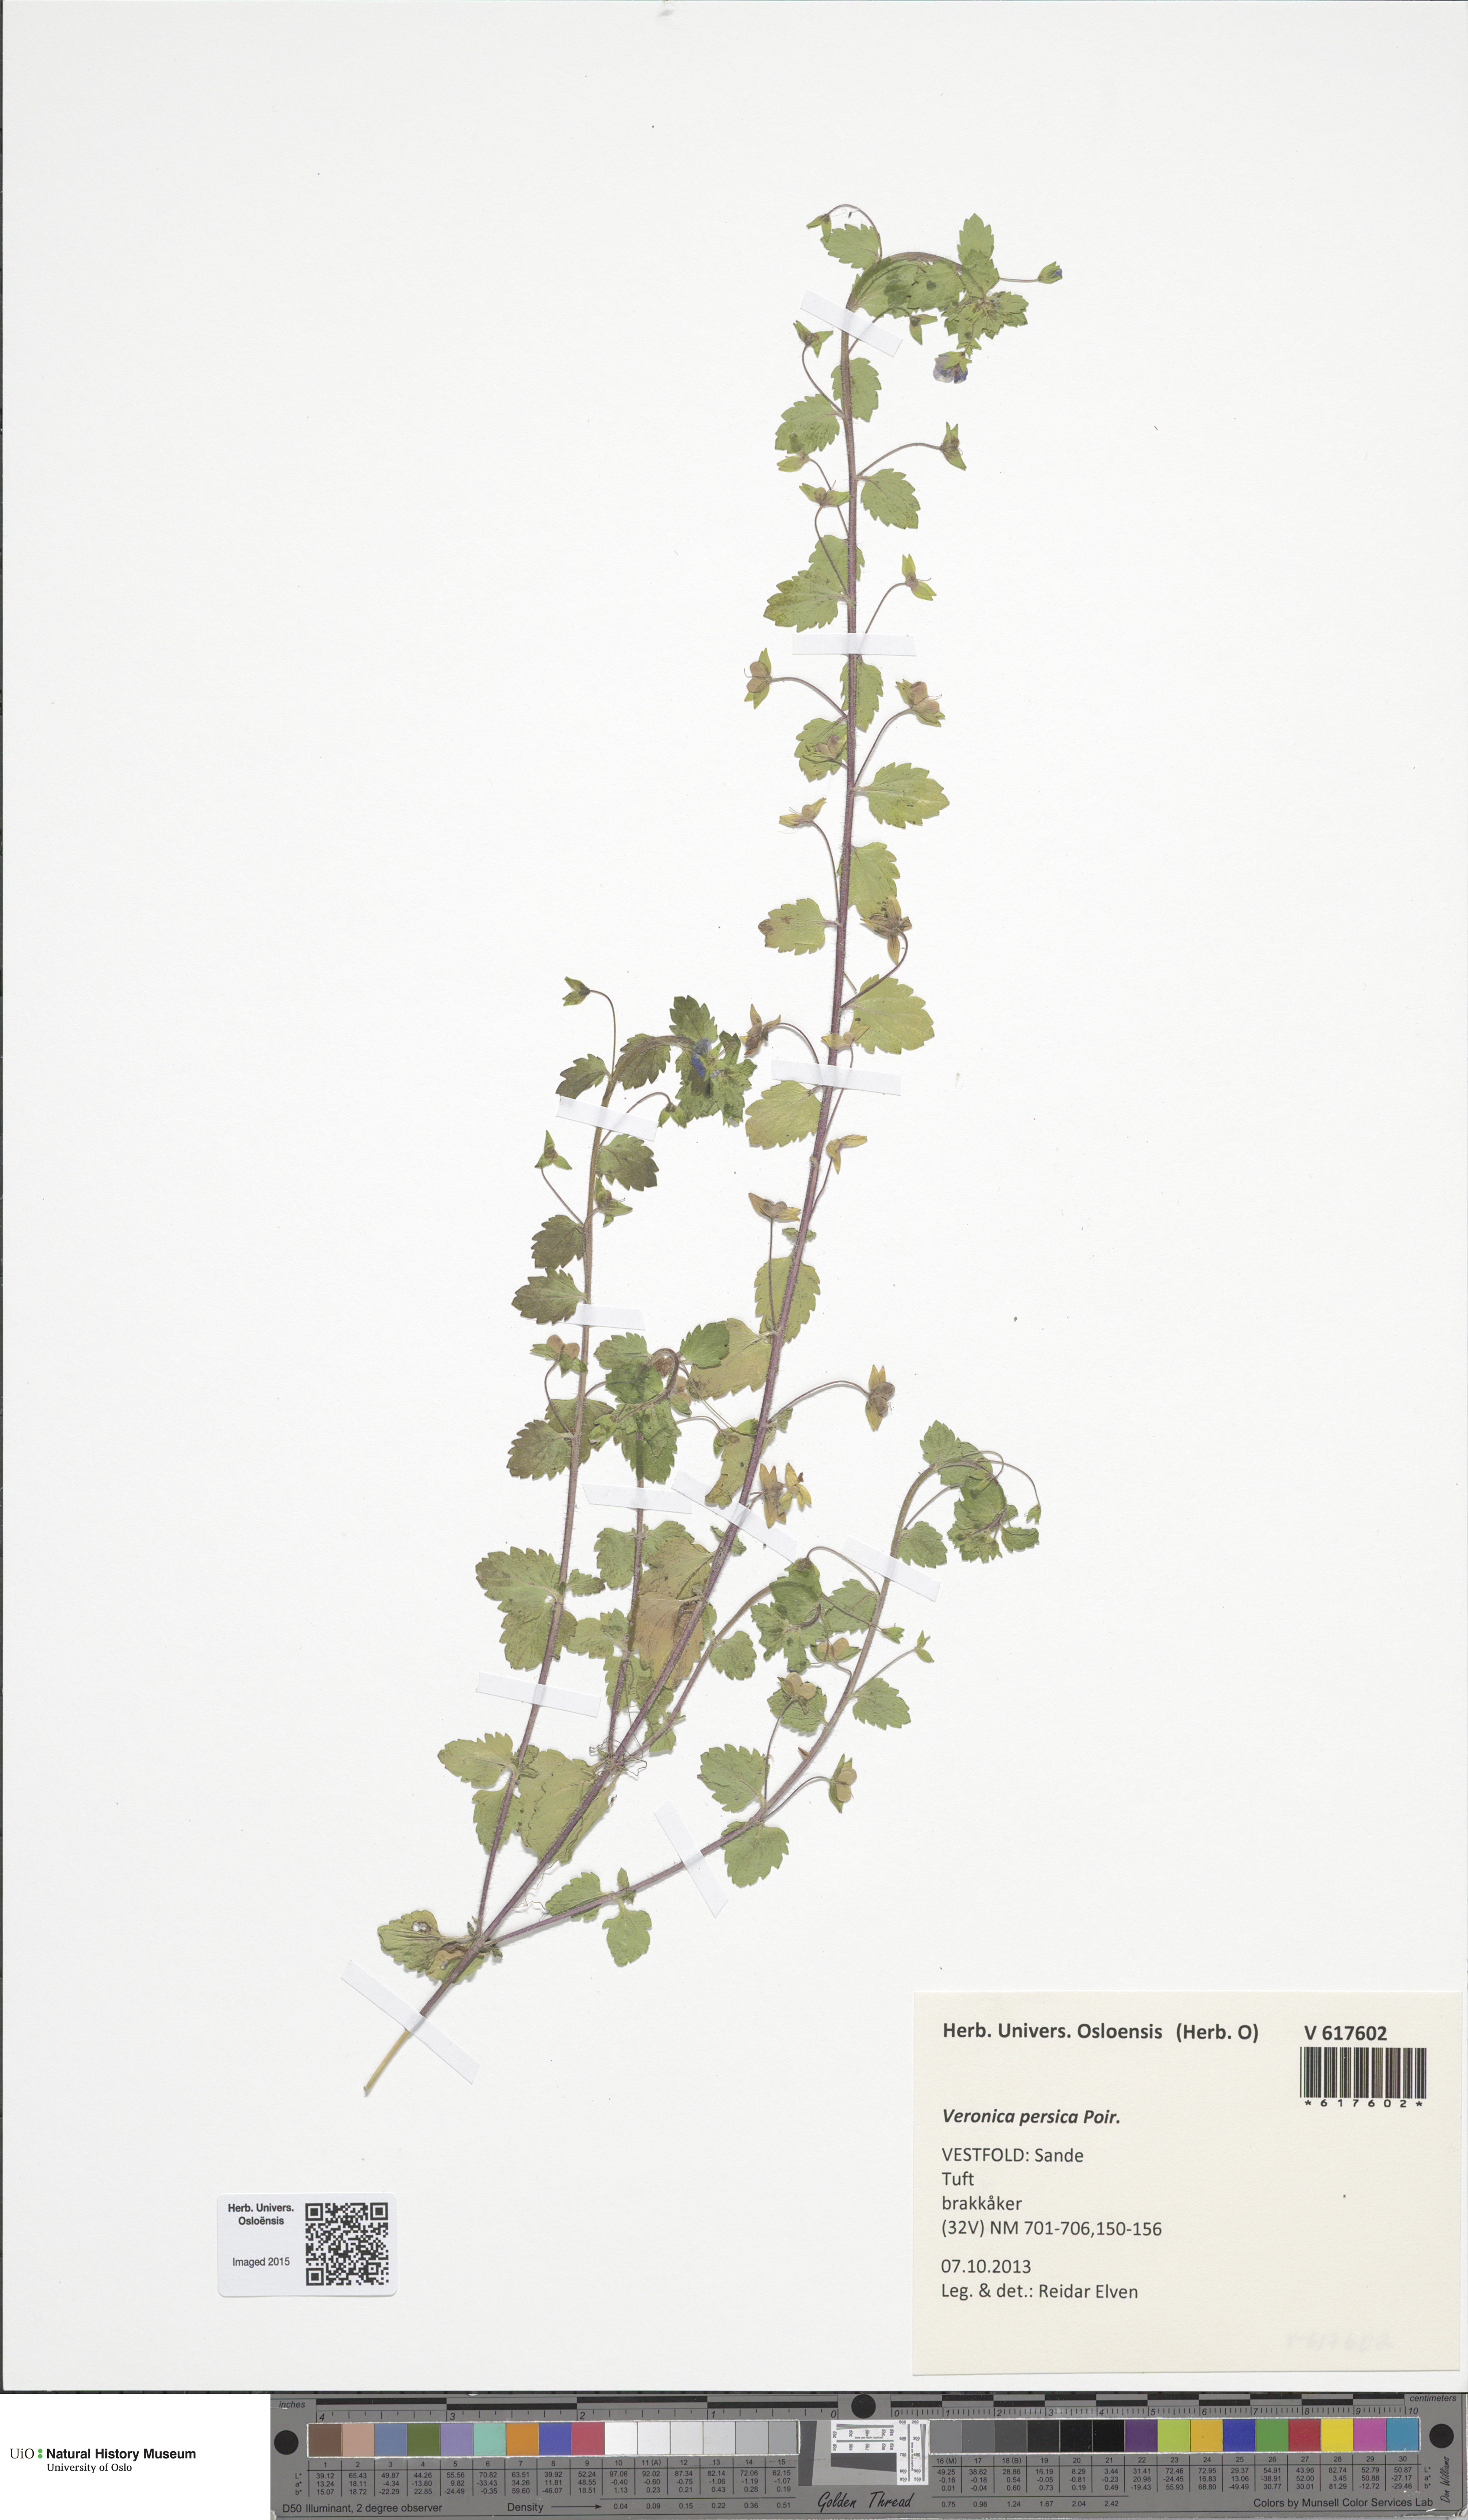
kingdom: Plantae
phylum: Tracheophyta
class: Magnoliopsida
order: Lamiales
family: Plantaginaceae
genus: Veronica
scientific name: Veronica persica
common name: Common field-speedwell
